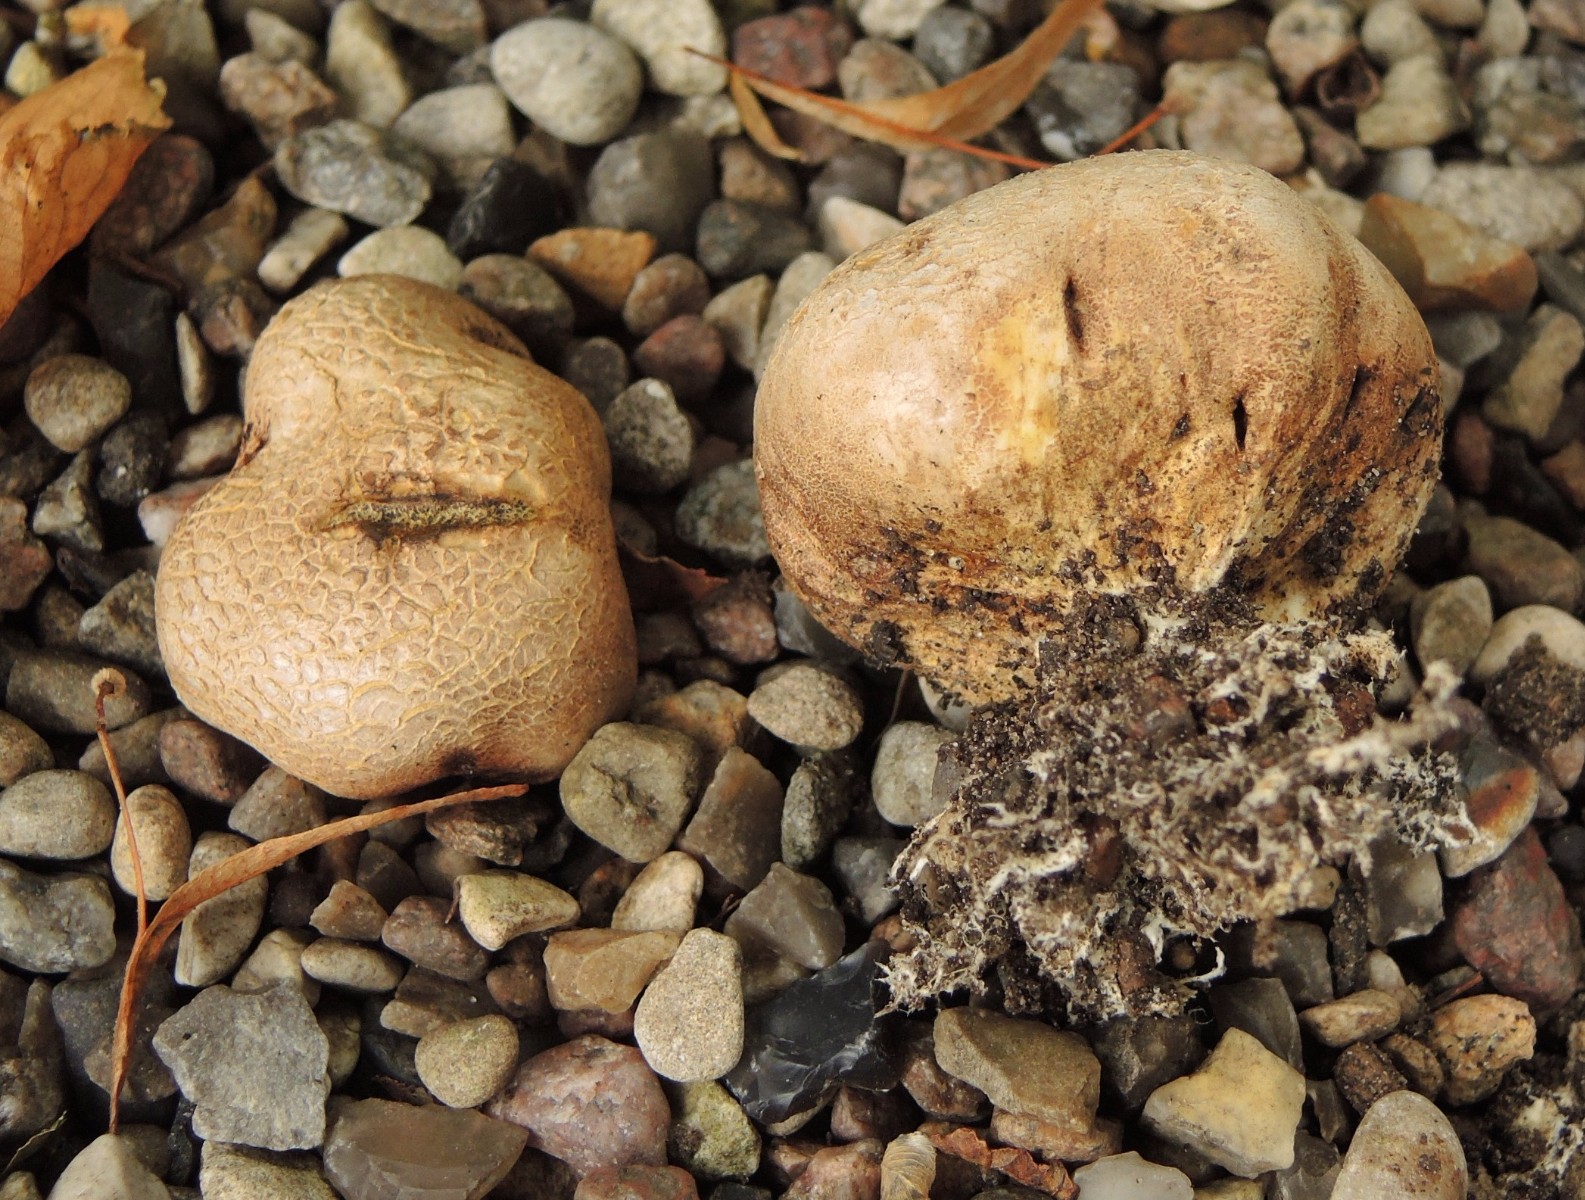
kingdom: Fungi
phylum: Basidiomycota
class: Agaricomycetes
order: Boletales
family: Sclerodermataceae
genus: Scleroderma
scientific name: Scleroderma bovista
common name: bovist-bruskbold
